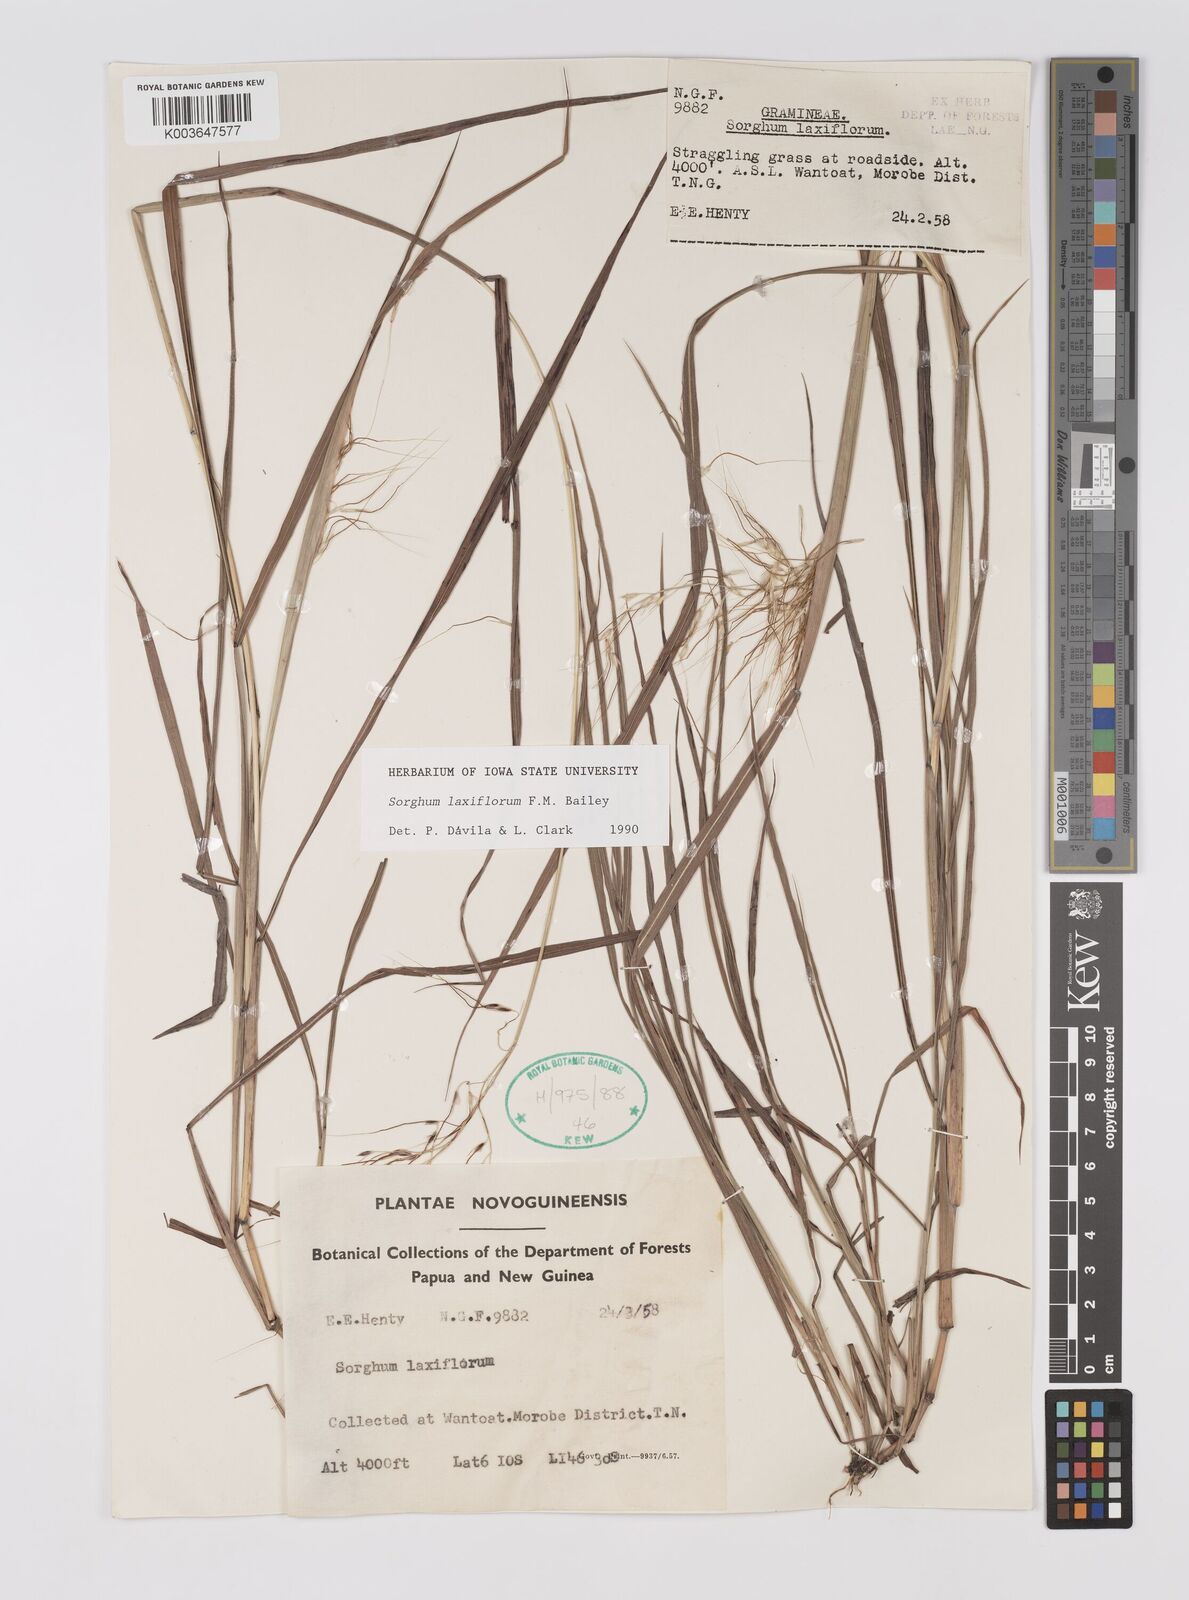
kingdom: Plantae
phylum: Tracheophyta
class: Liliopsida
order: Poales
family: Poaceae
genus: Sorghum
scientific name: Sorghum laxiflorum
